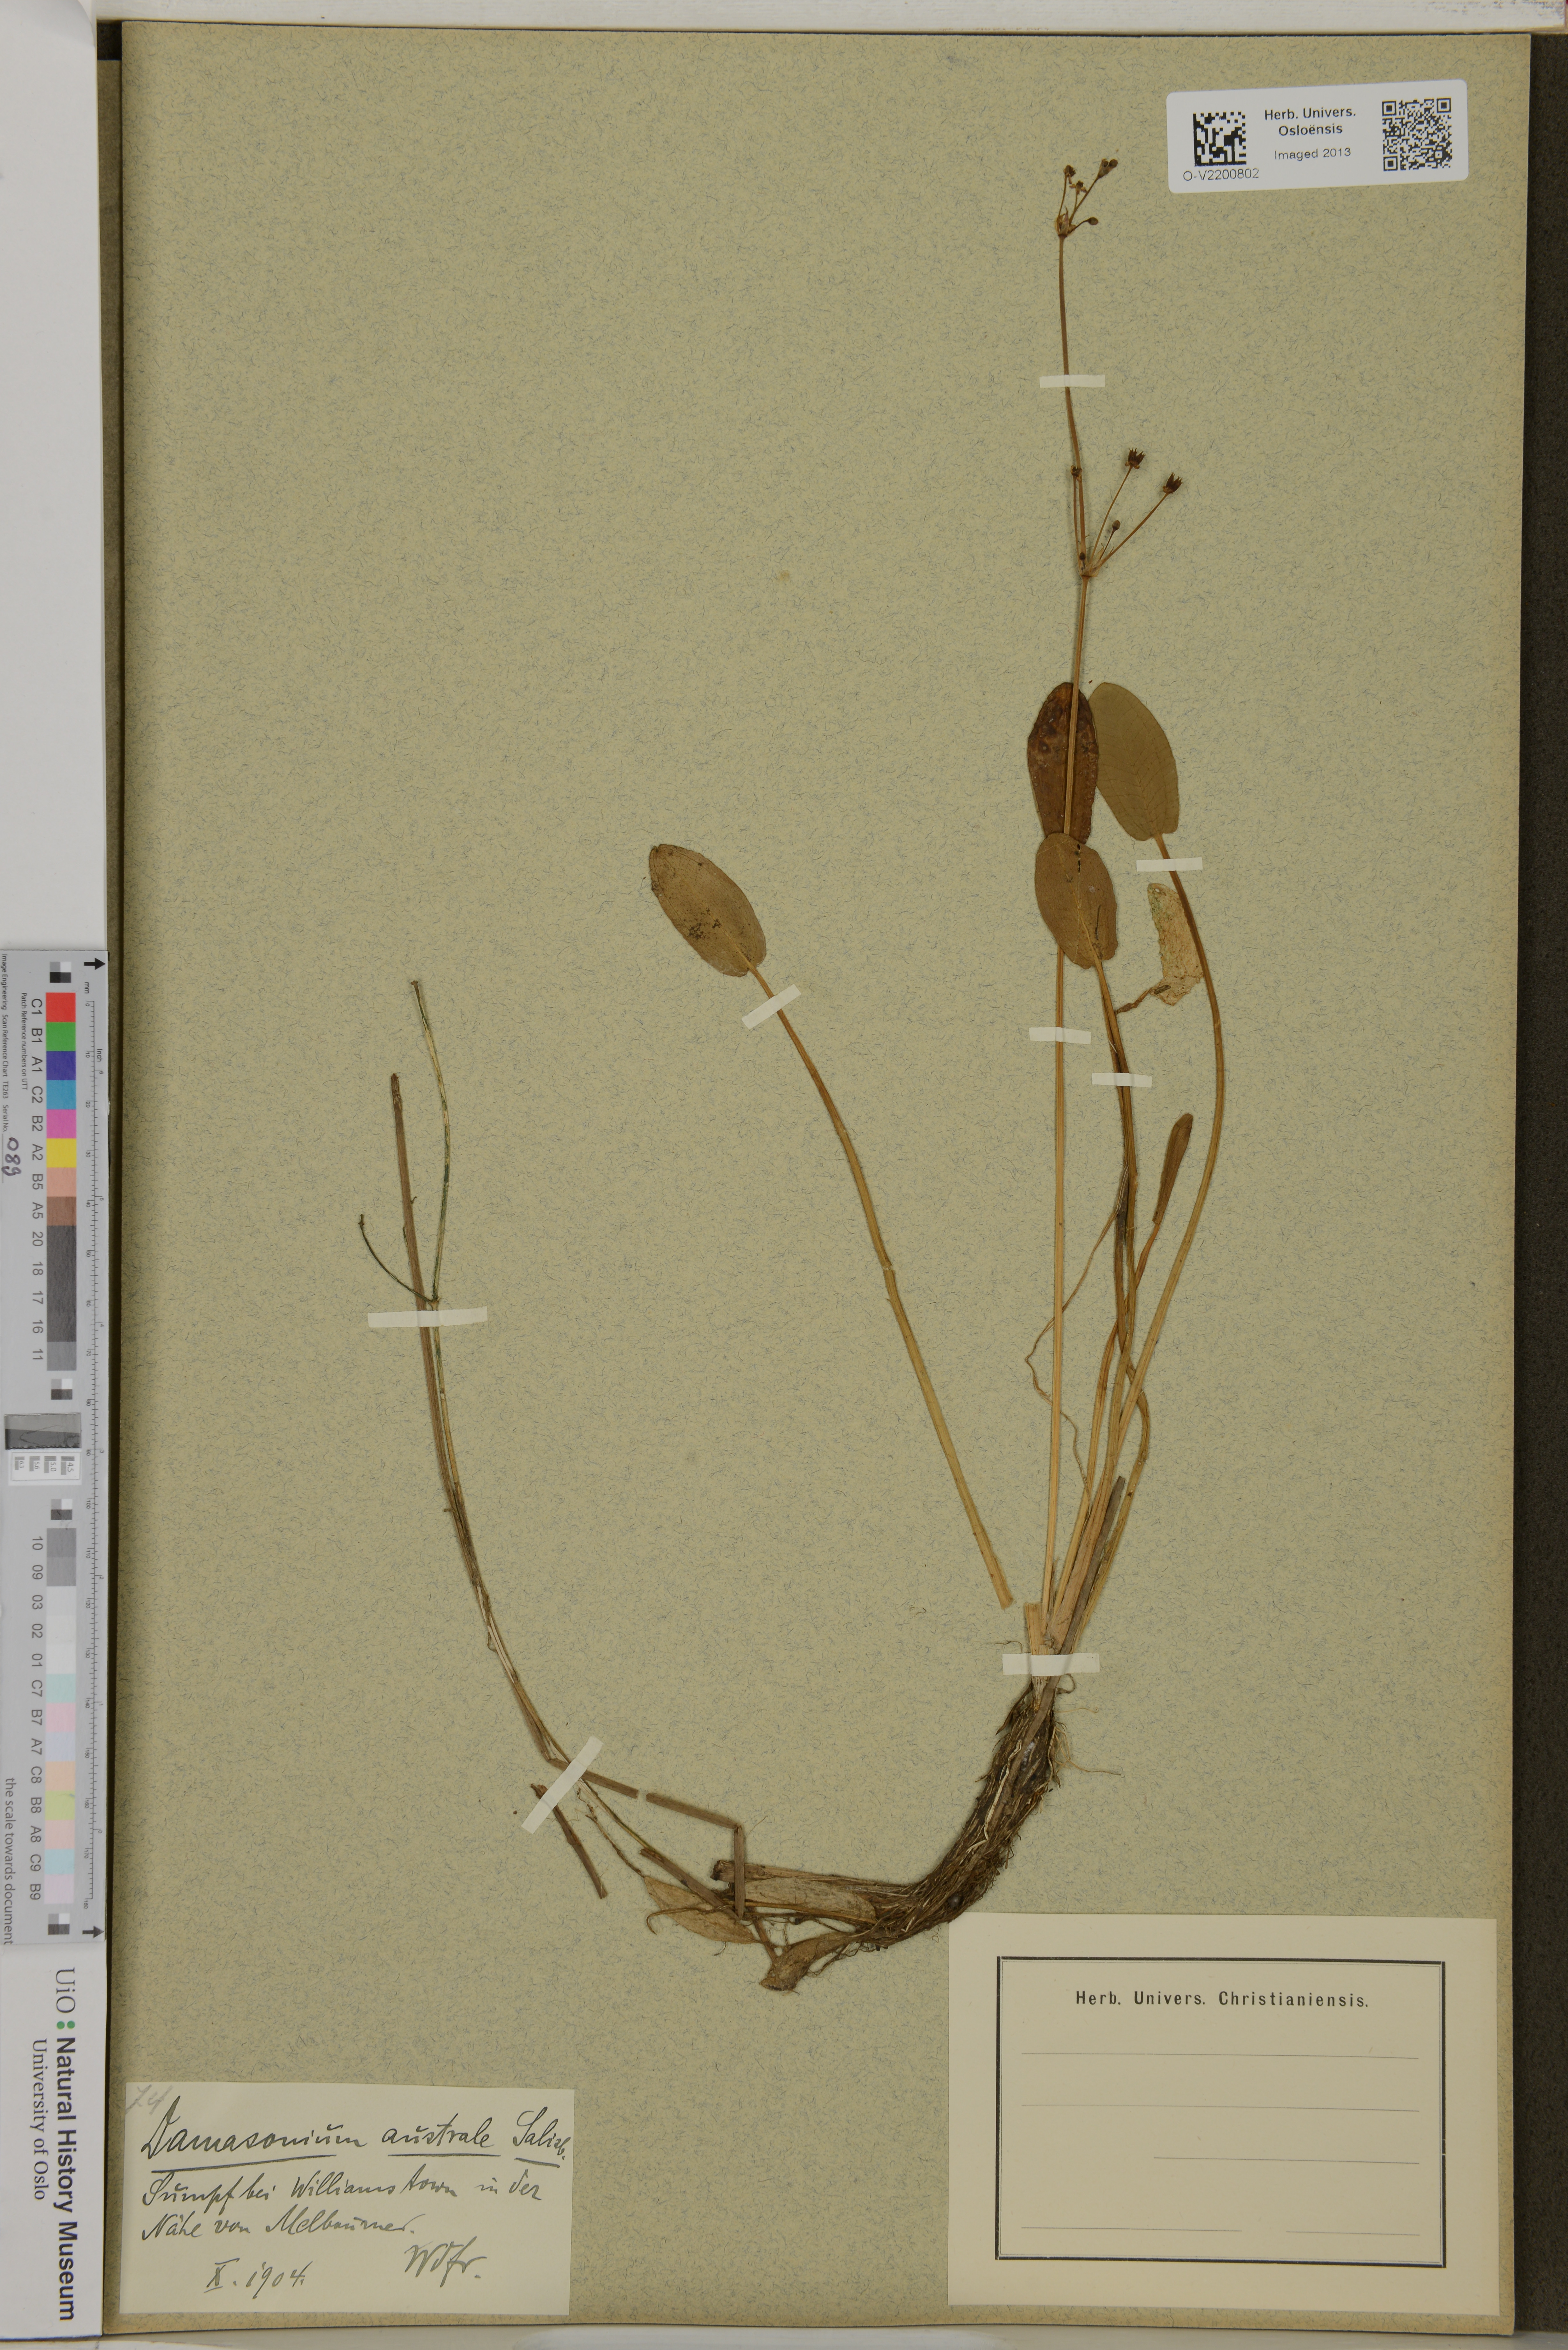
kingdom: Plantae
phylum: Tracheophyta
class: Liliopsida
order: Alismatales
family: Alismataceae
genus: Damasonium
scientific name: Damasonium minus
